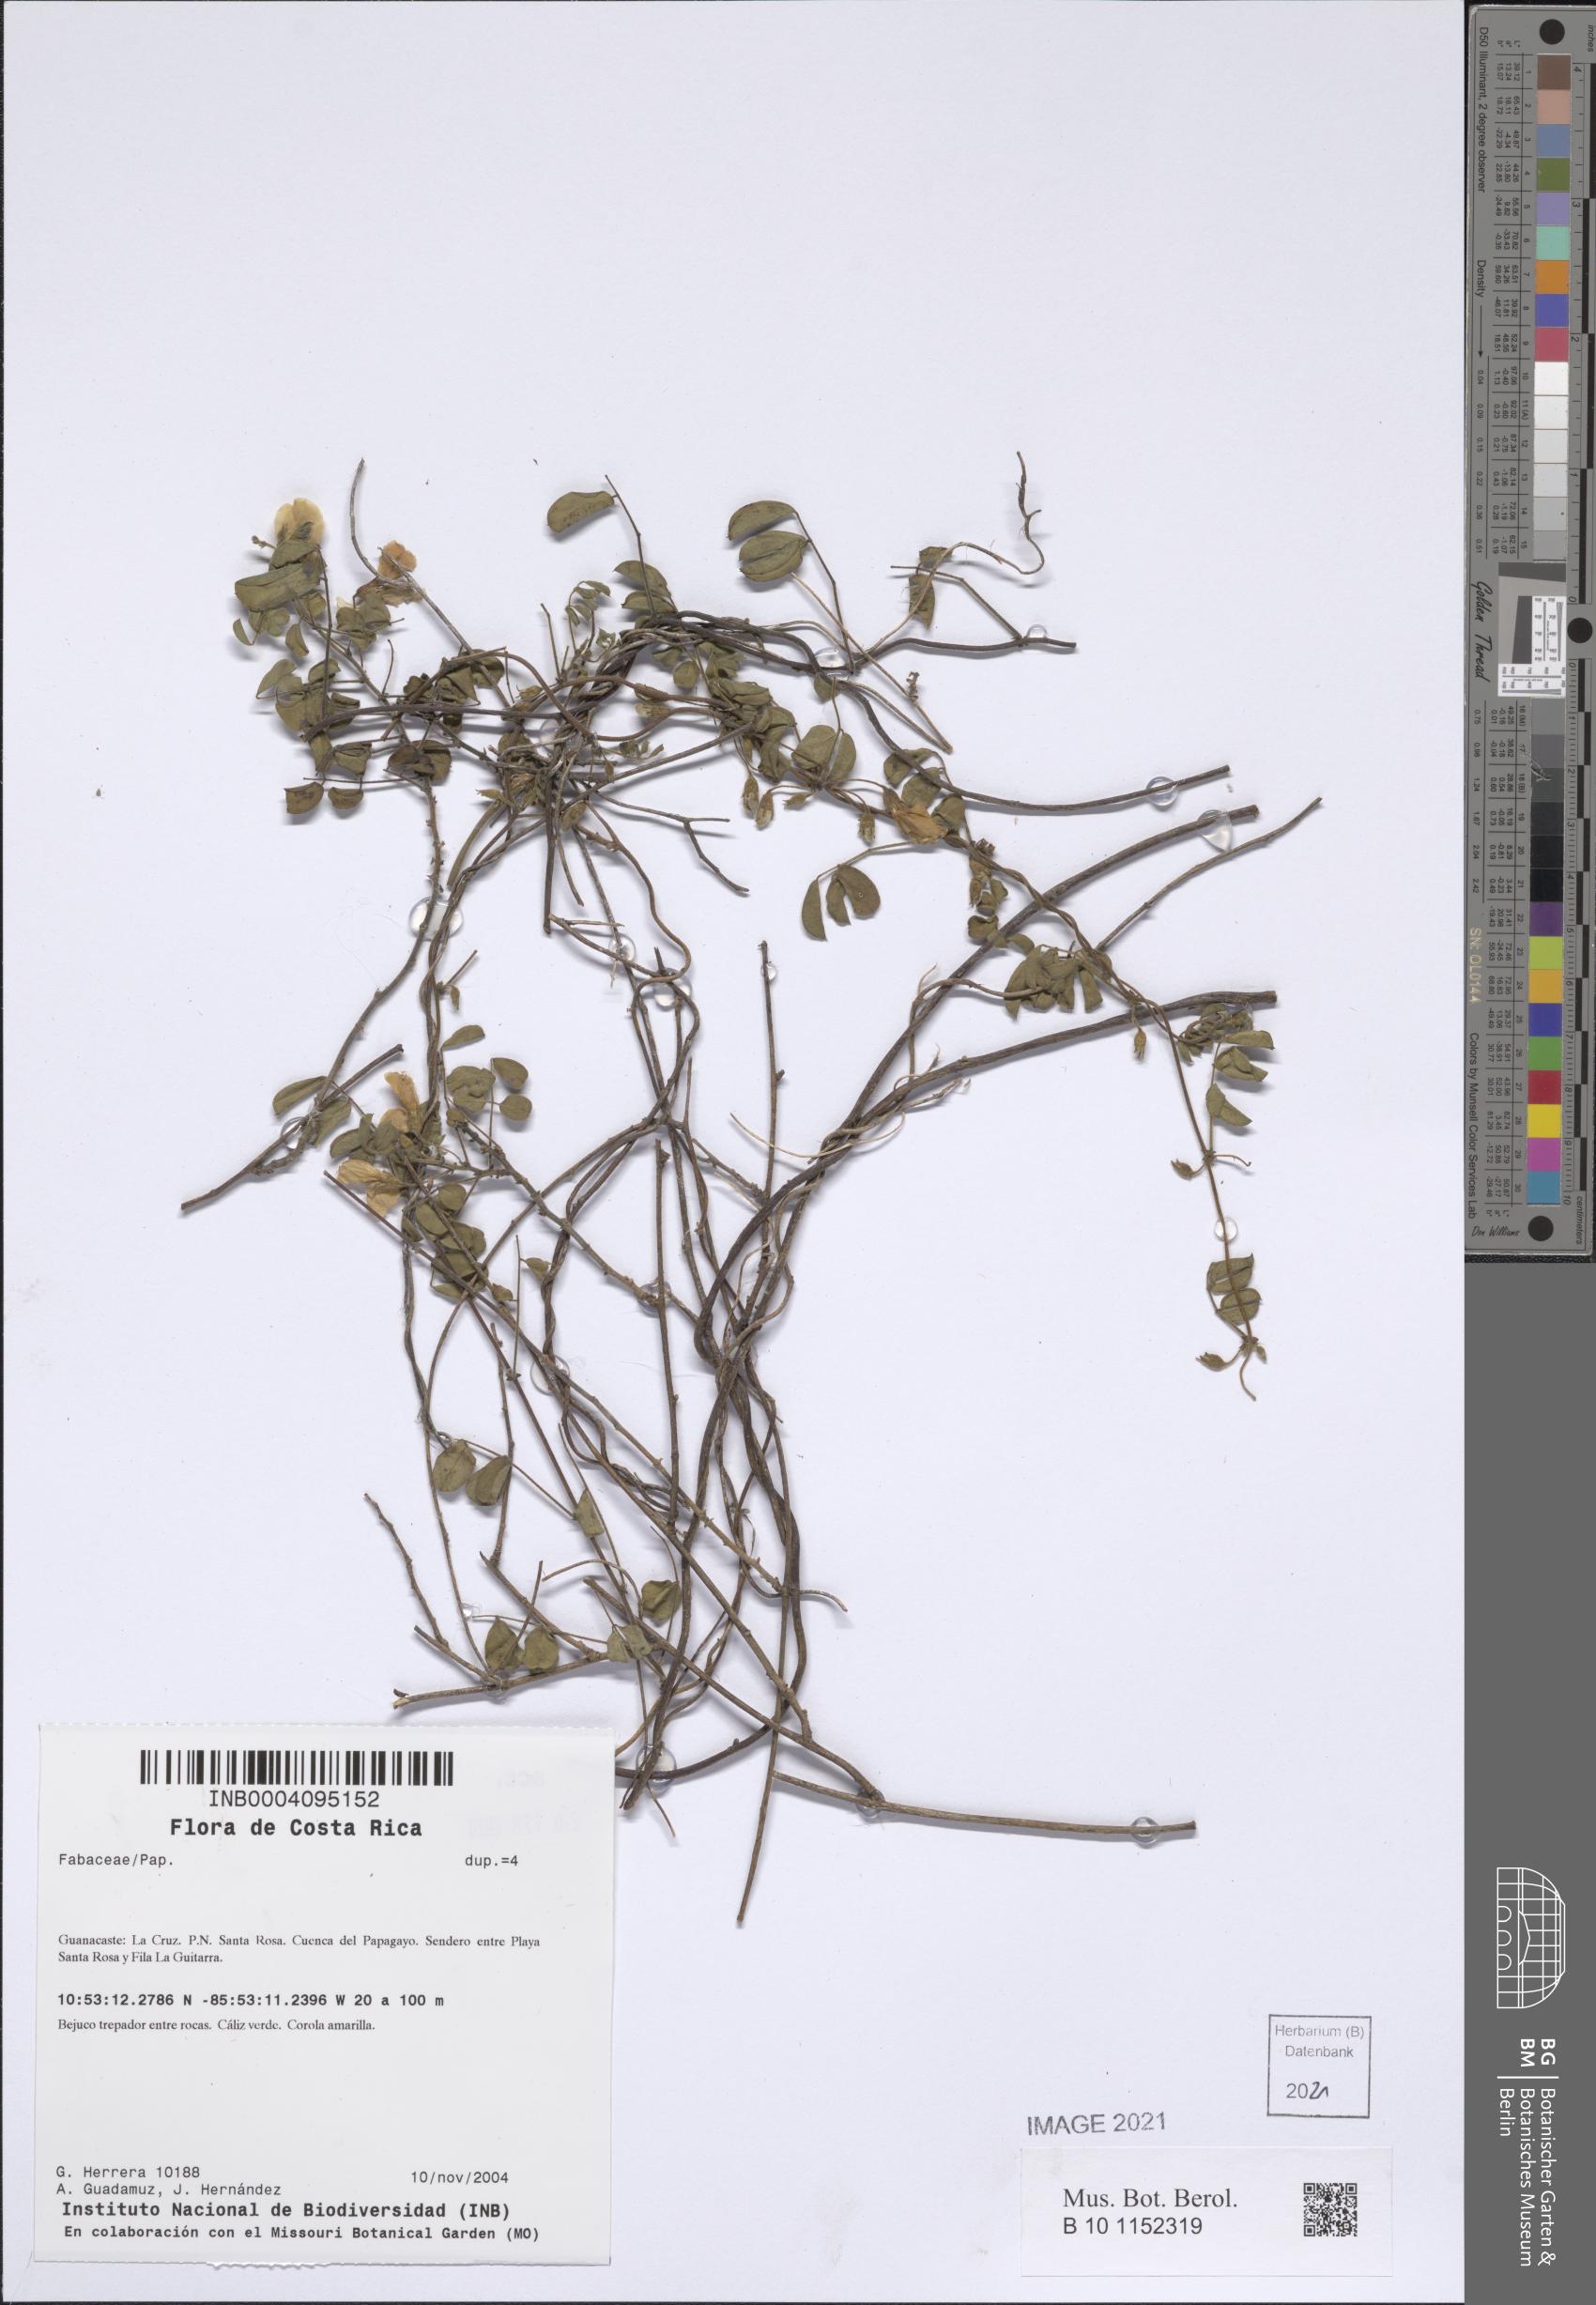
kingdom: Plantae
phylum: Tracheophyta
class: Magnoliopsida
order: Fabales
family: Fabaceae
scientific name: Fabaceae
